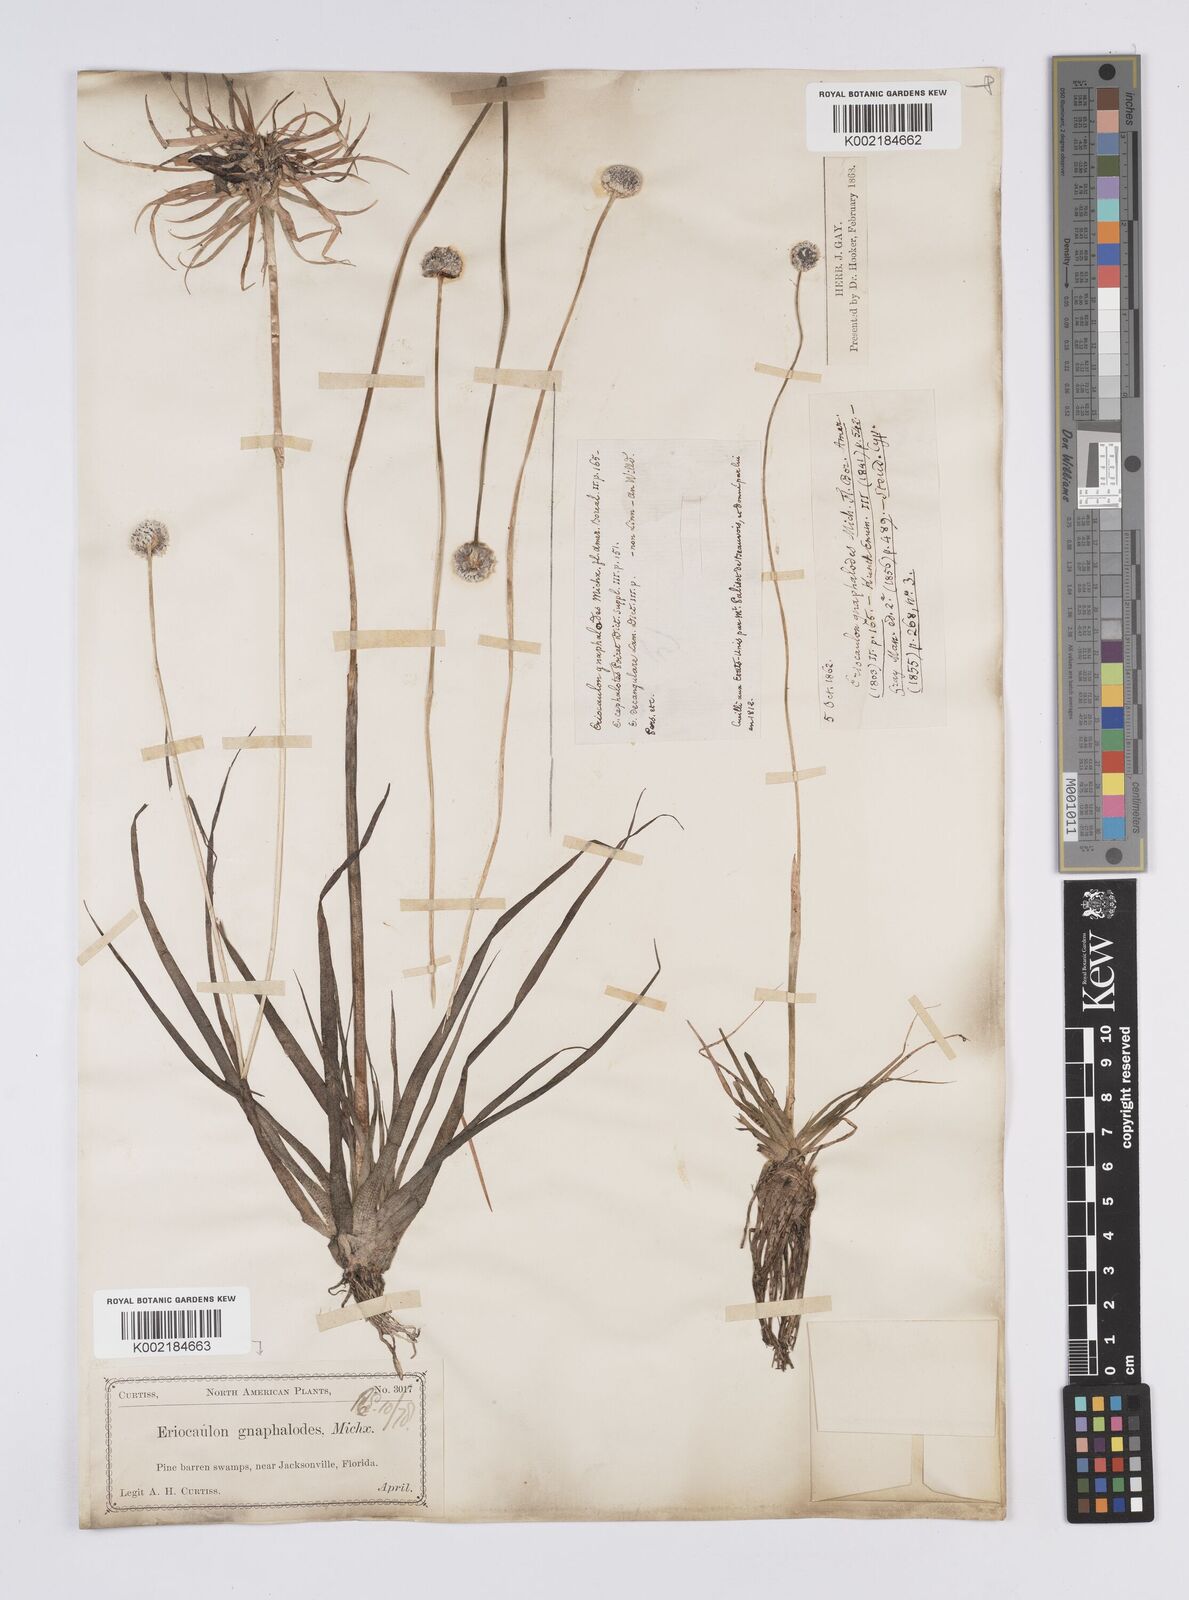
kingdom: Plantae
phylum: Tracheophyta
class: Liliopsida
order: Poales
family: Eriocaulaceae
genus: Eriocaulon
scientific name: Eriocaulon compressum
